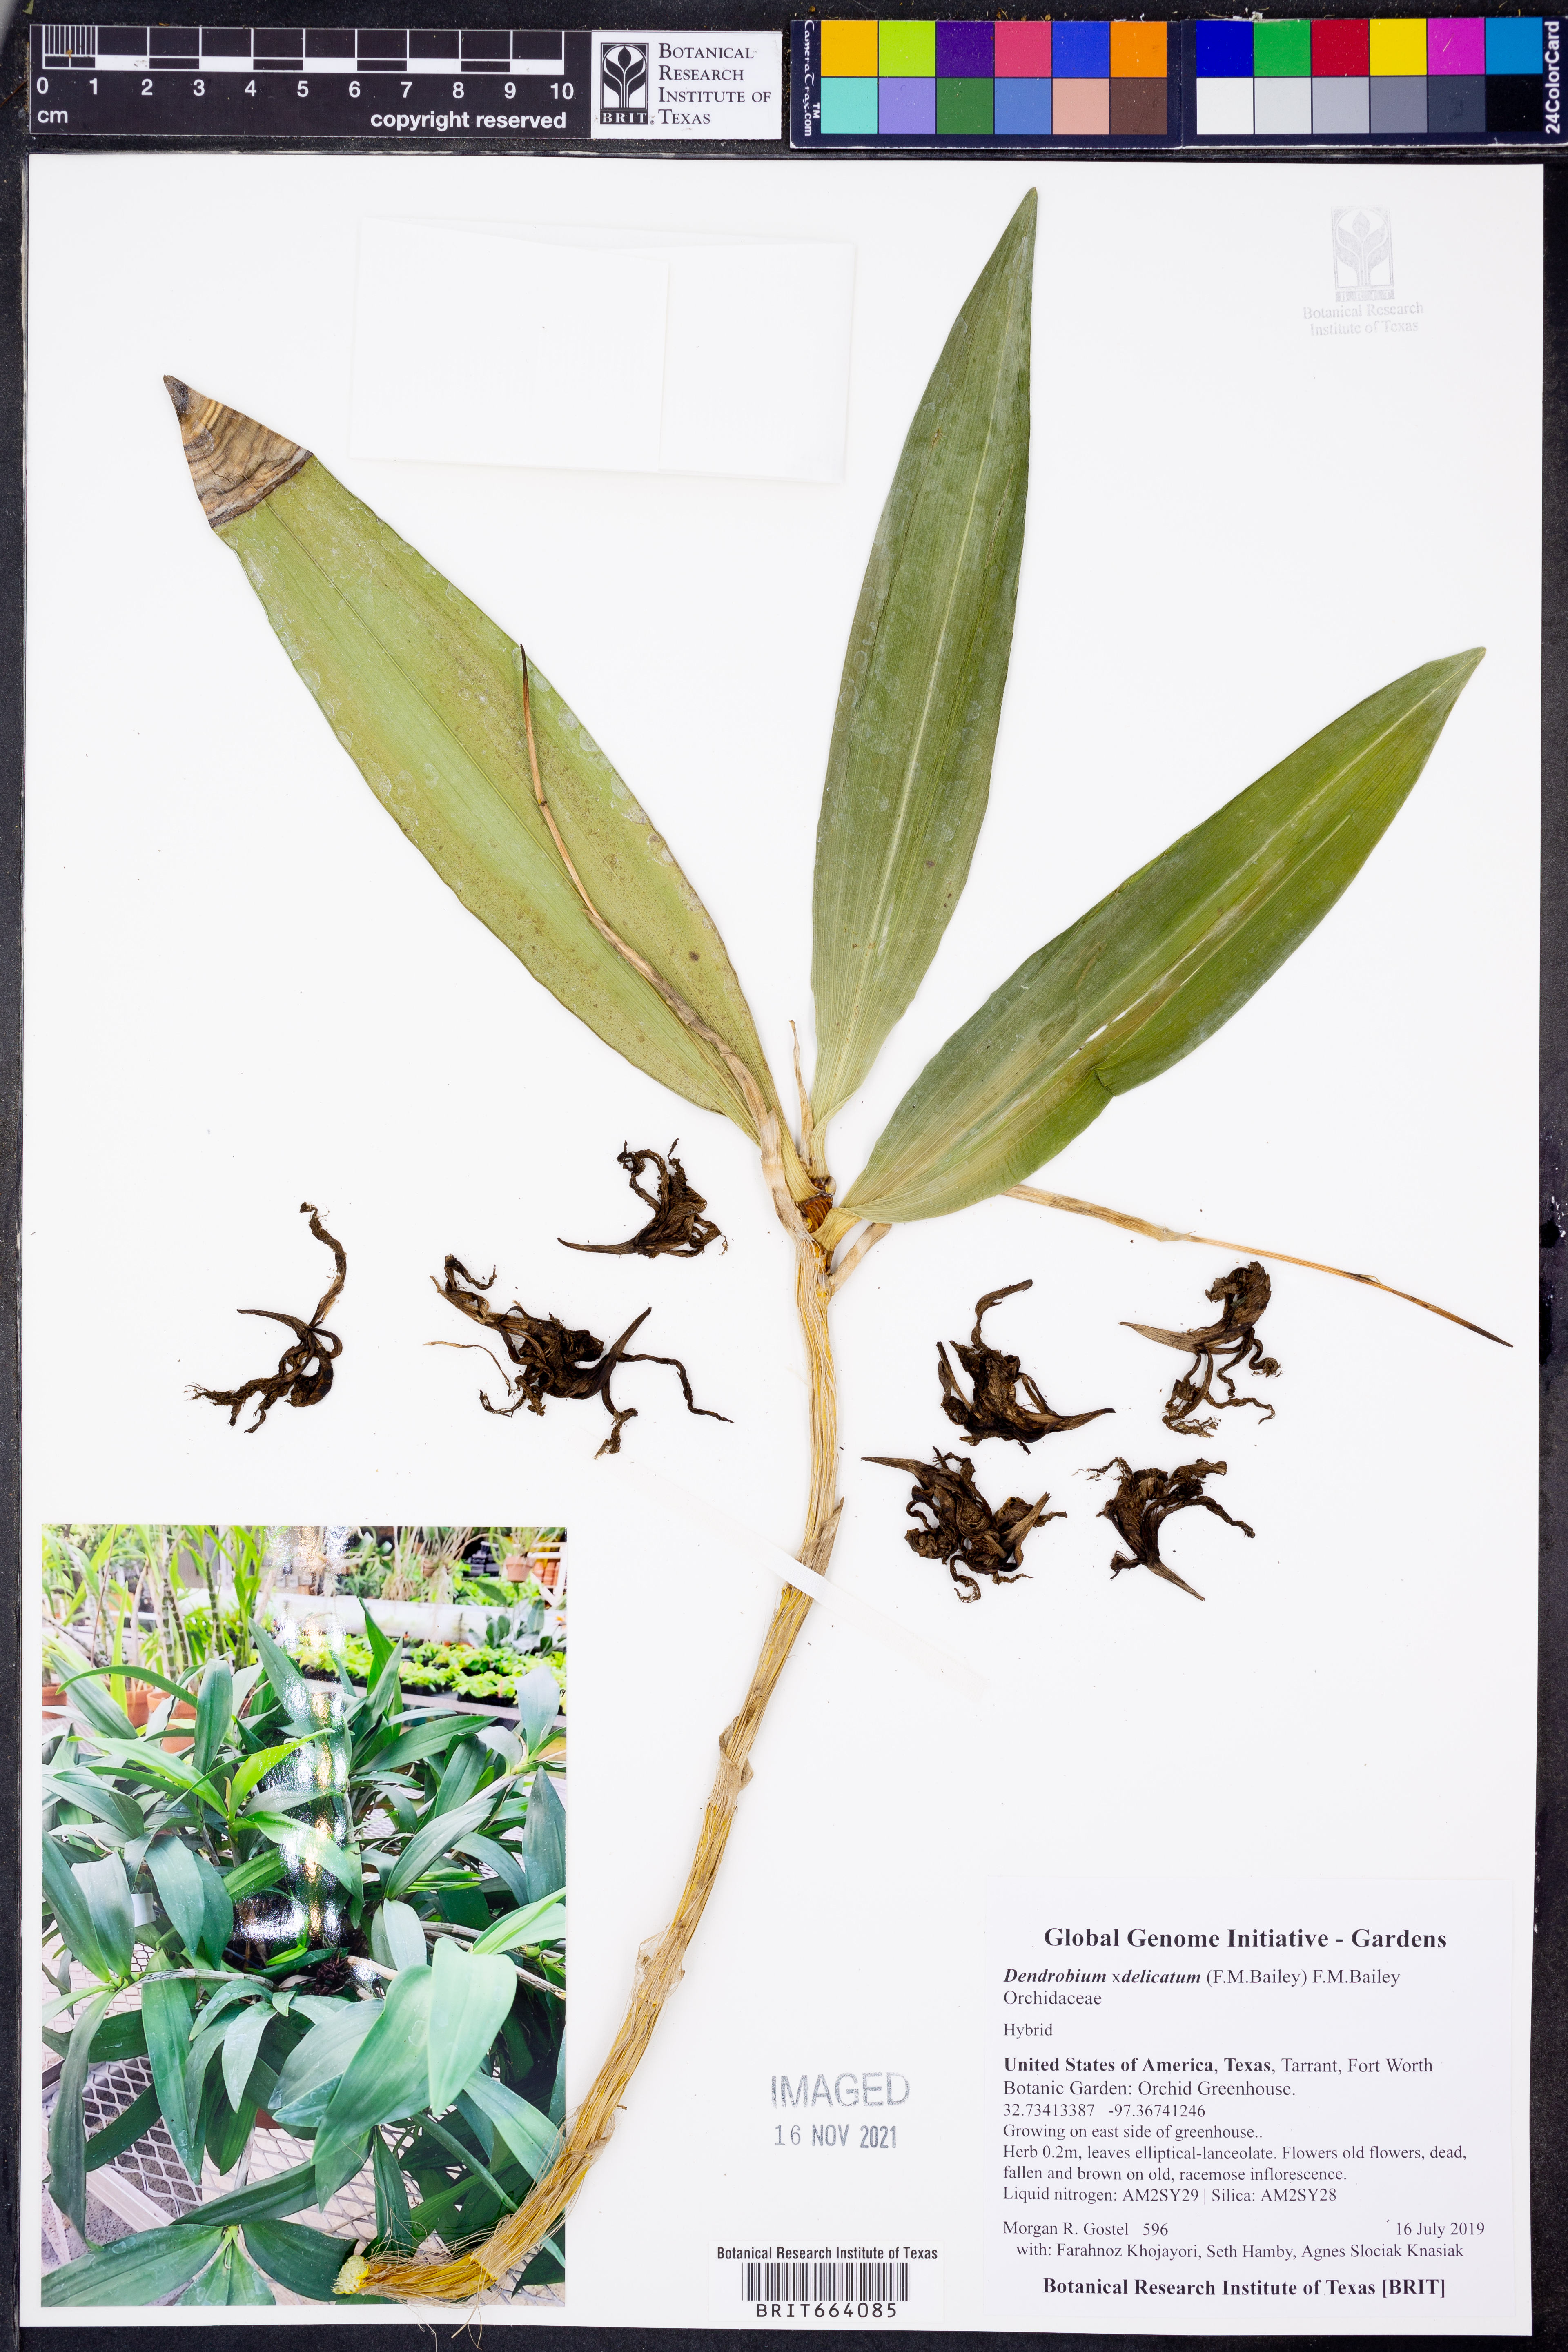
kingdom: Plantae
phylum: Tracheophyta
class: Liliopsida
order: Asparagales
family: Orchidaceae
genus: Dendrobium
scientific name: Dendrobium
